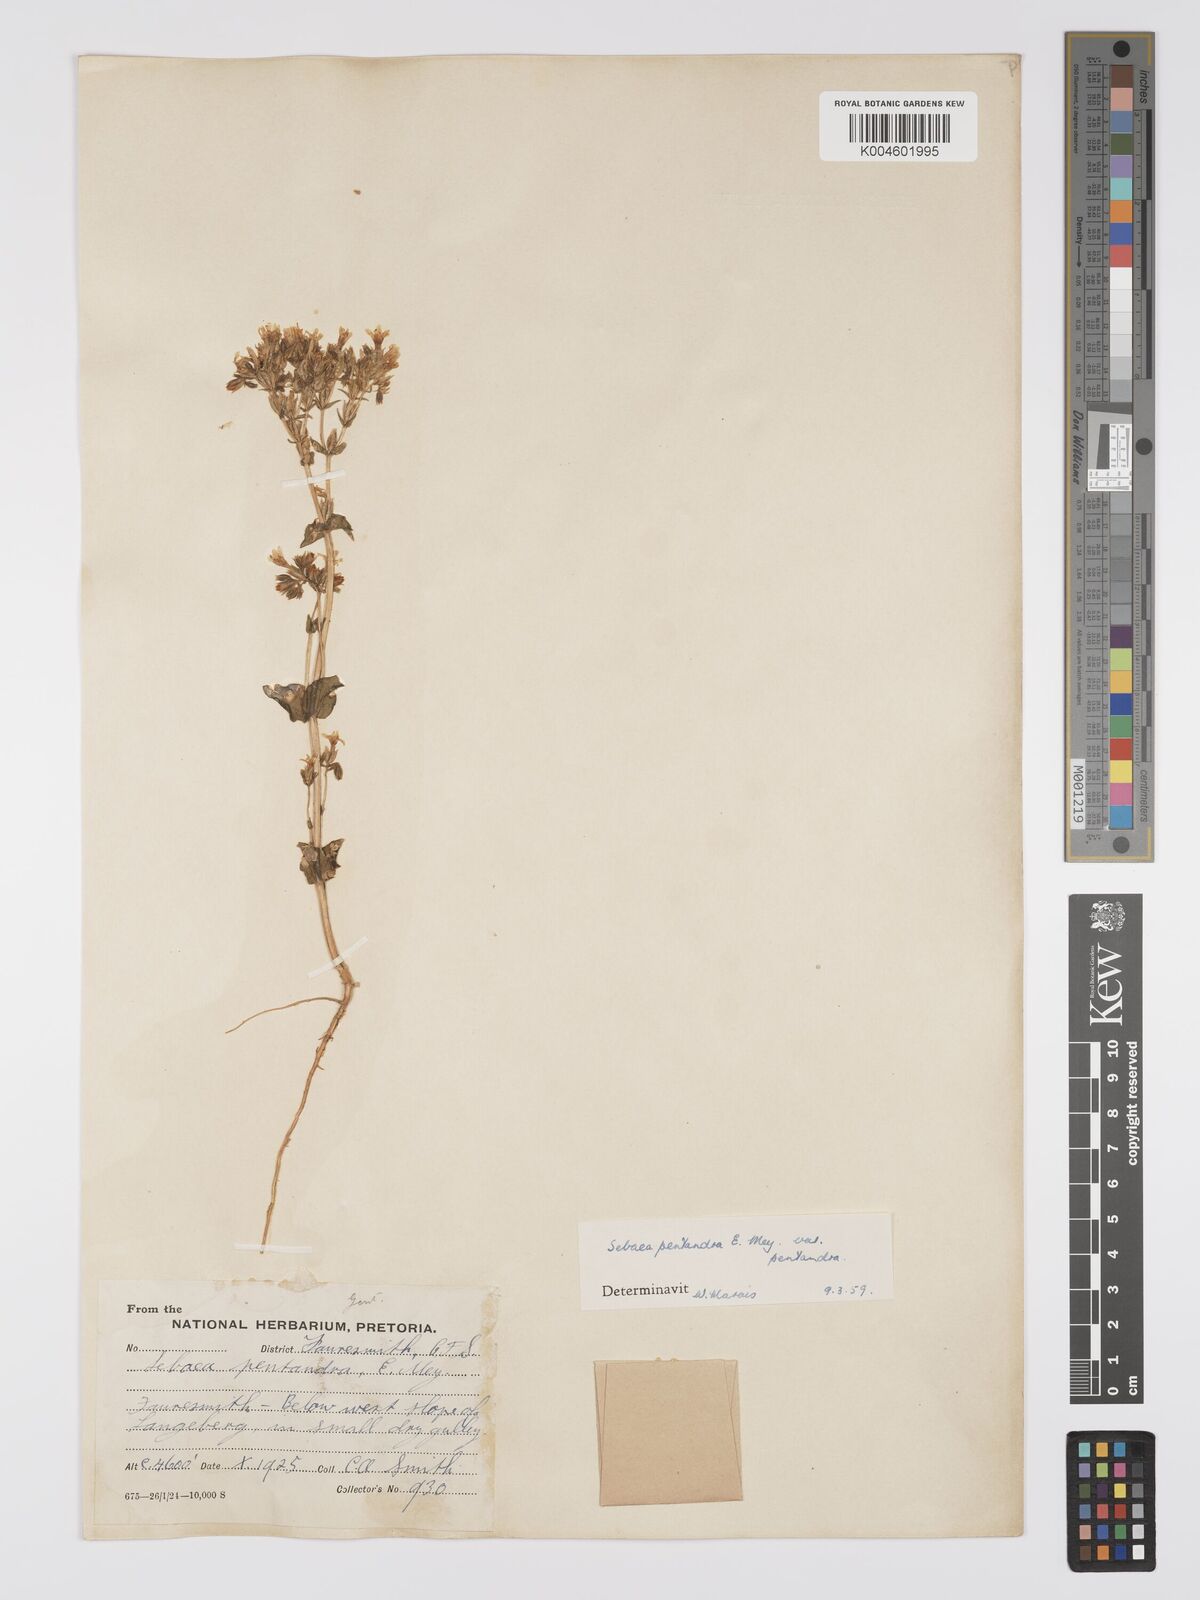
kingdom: Plantae
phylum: Tracheophyta
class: Magnoliopsida
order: Gentianales
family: Gentianaceae
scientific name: Gentianaceae
